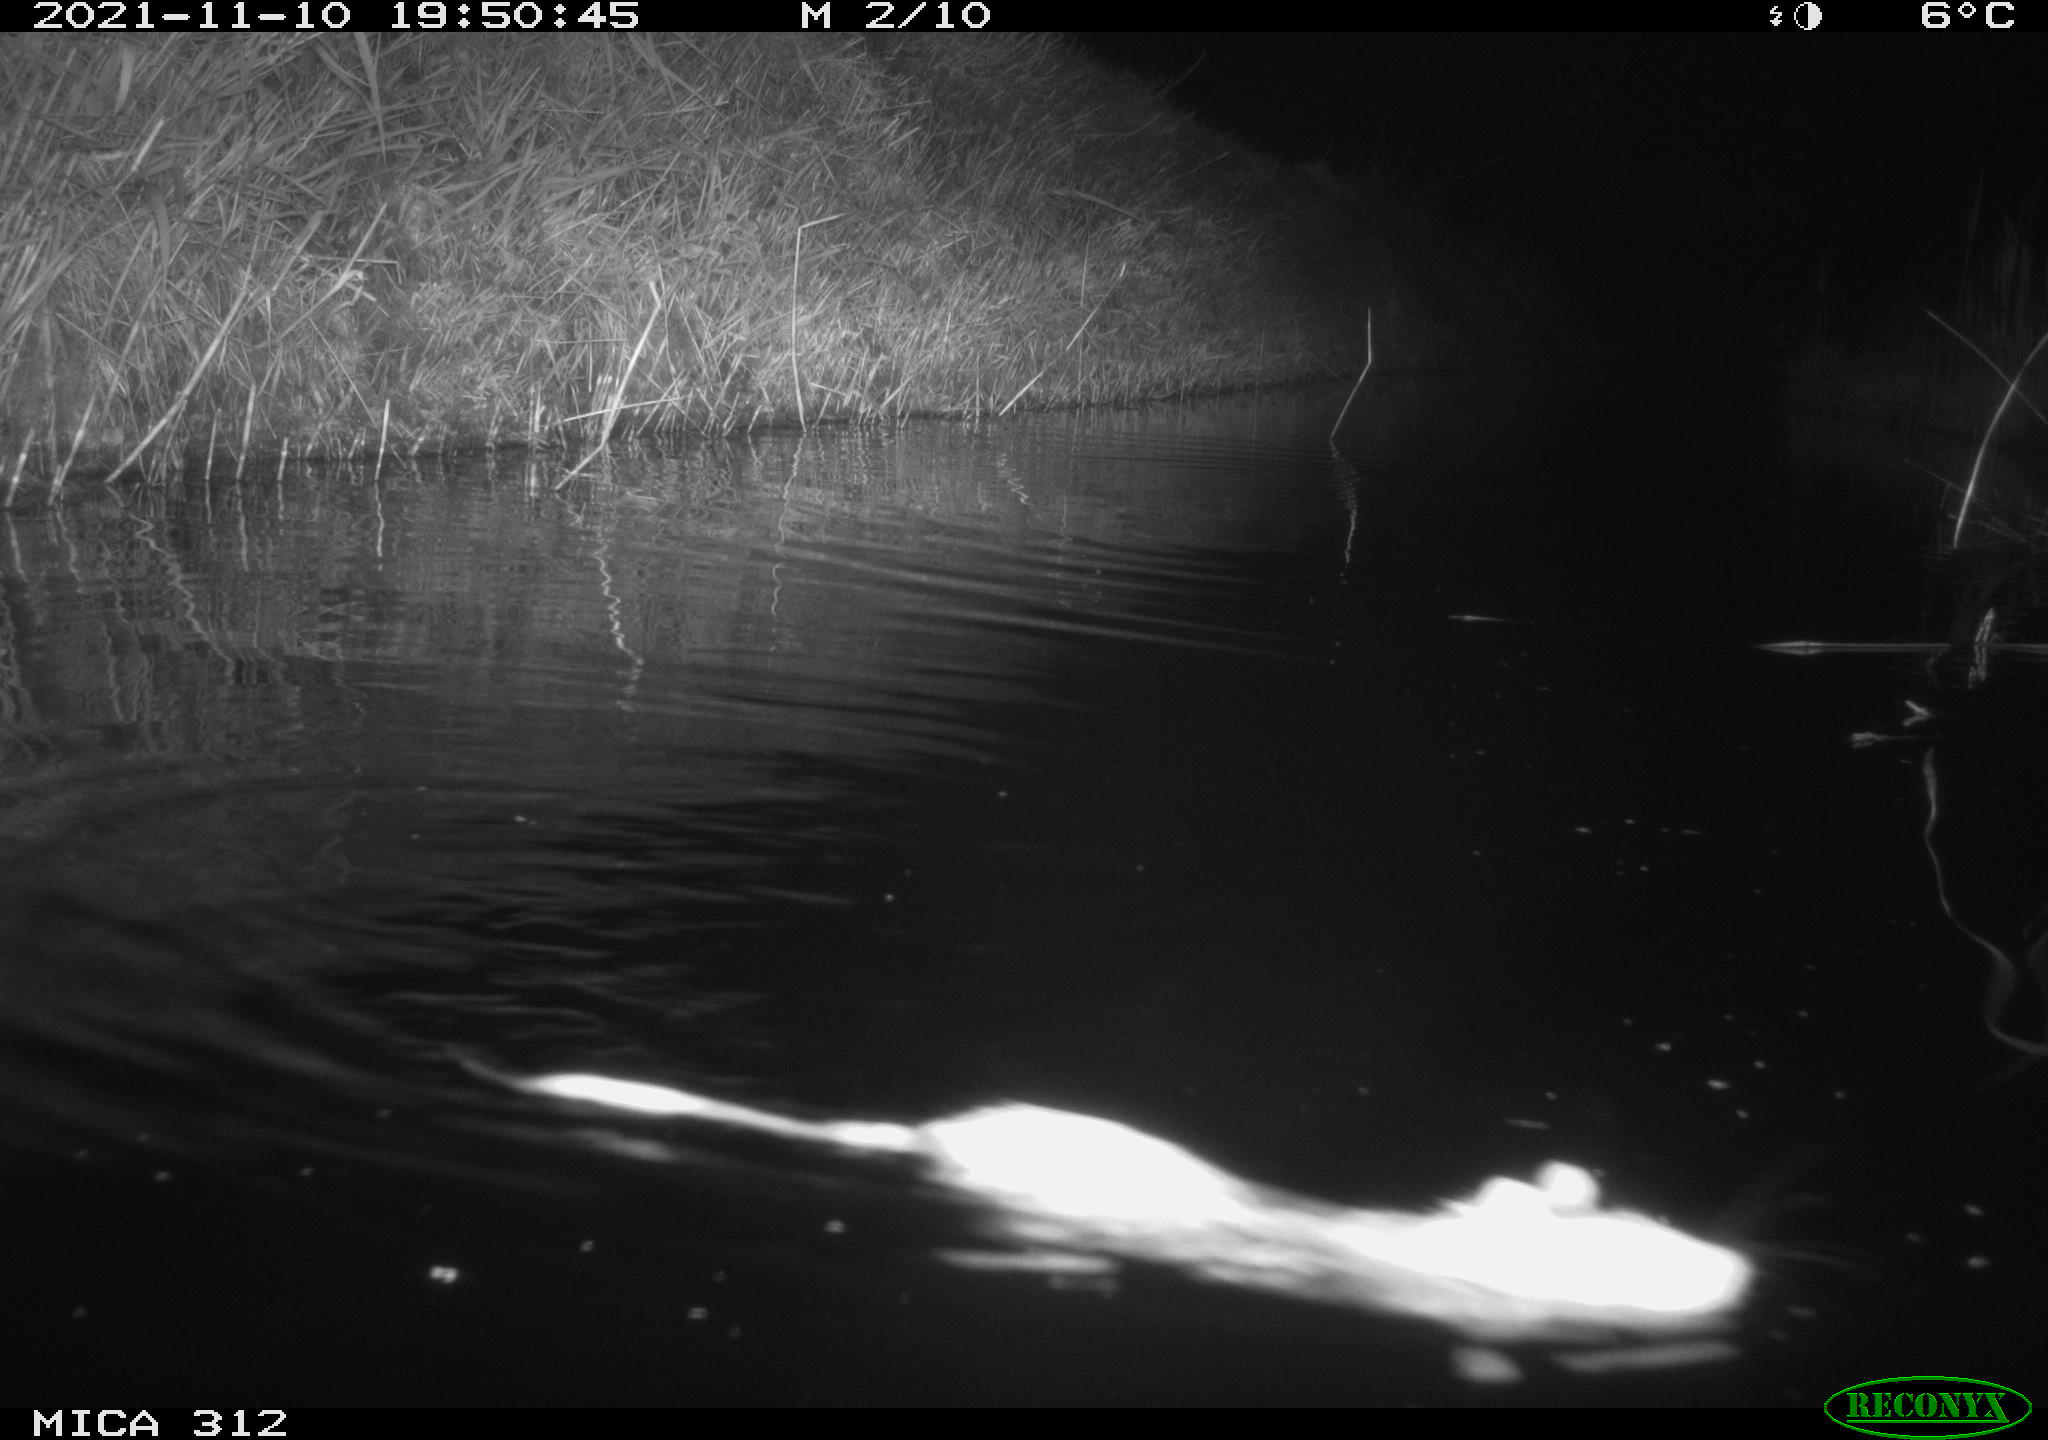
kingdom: Animalia
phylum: Chordata
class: Mammalia
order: Rodentia
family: Muridae
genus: Rattus
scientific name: Rattus norvegicus
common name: Brown rat
